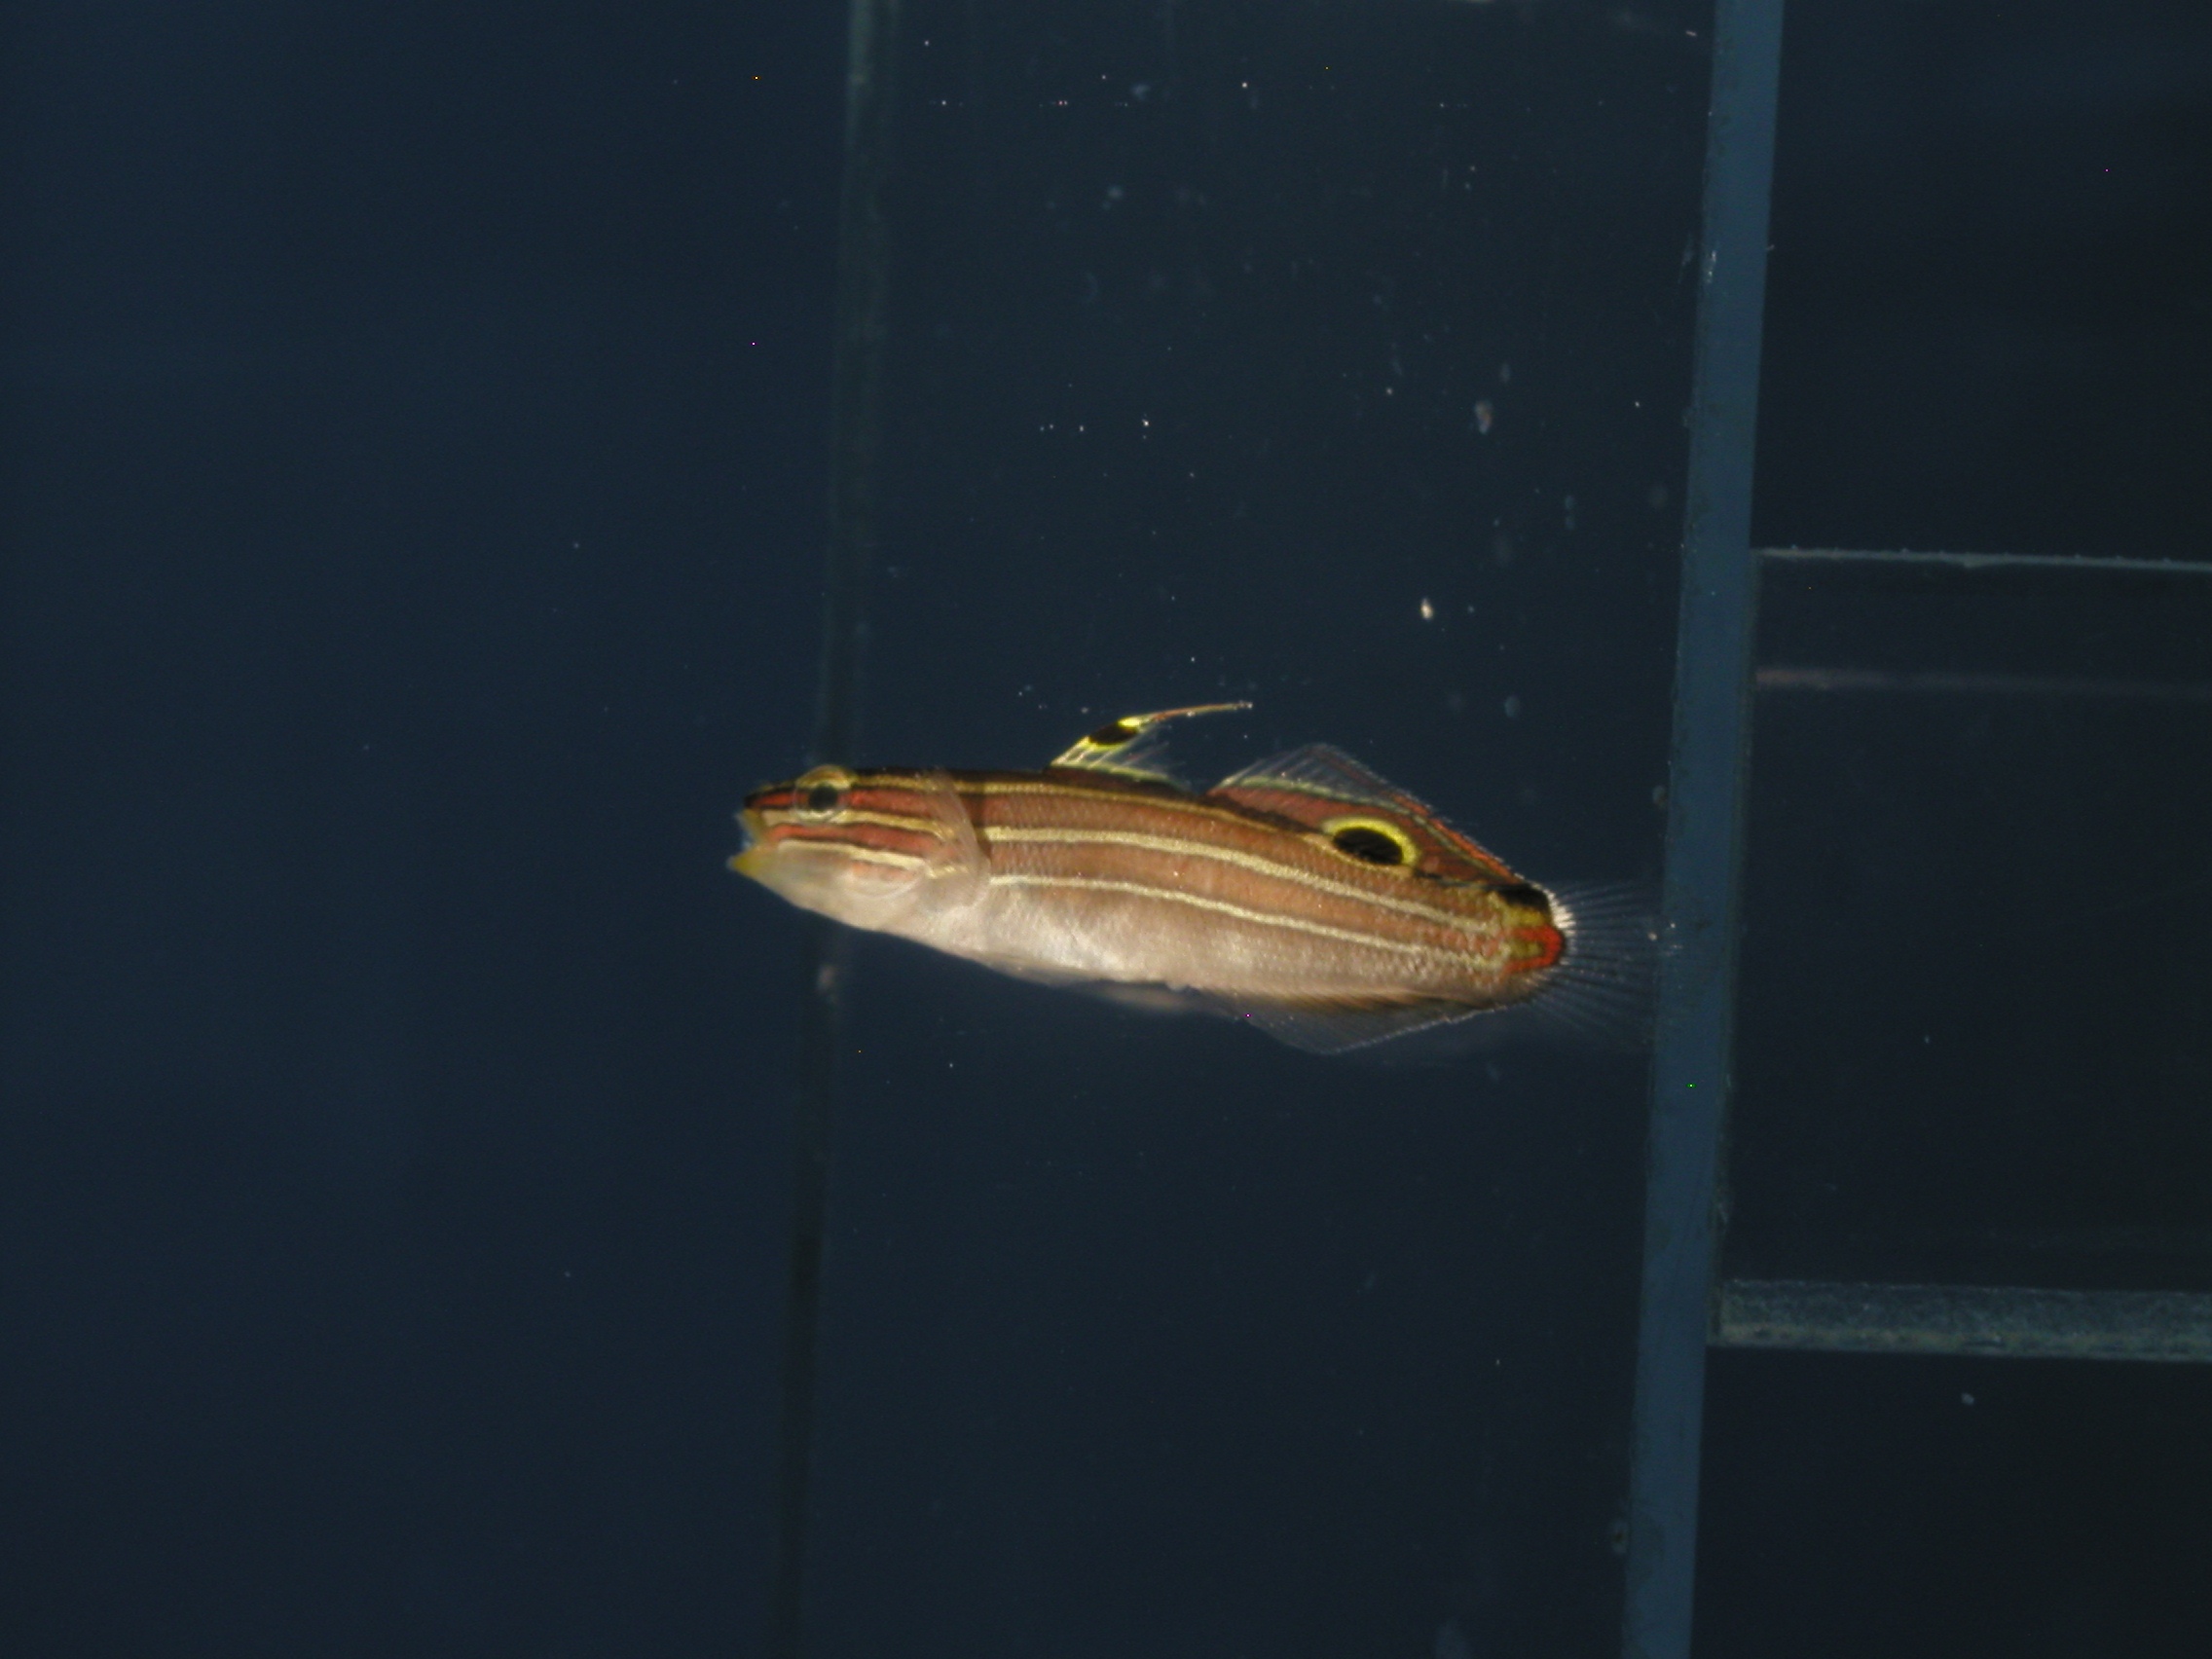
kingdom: Animalia
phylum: Chordata
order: Perciformes
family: Gobiidae
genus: Koumansetta
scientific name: Koumansetta hectori
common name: Hector's goby
